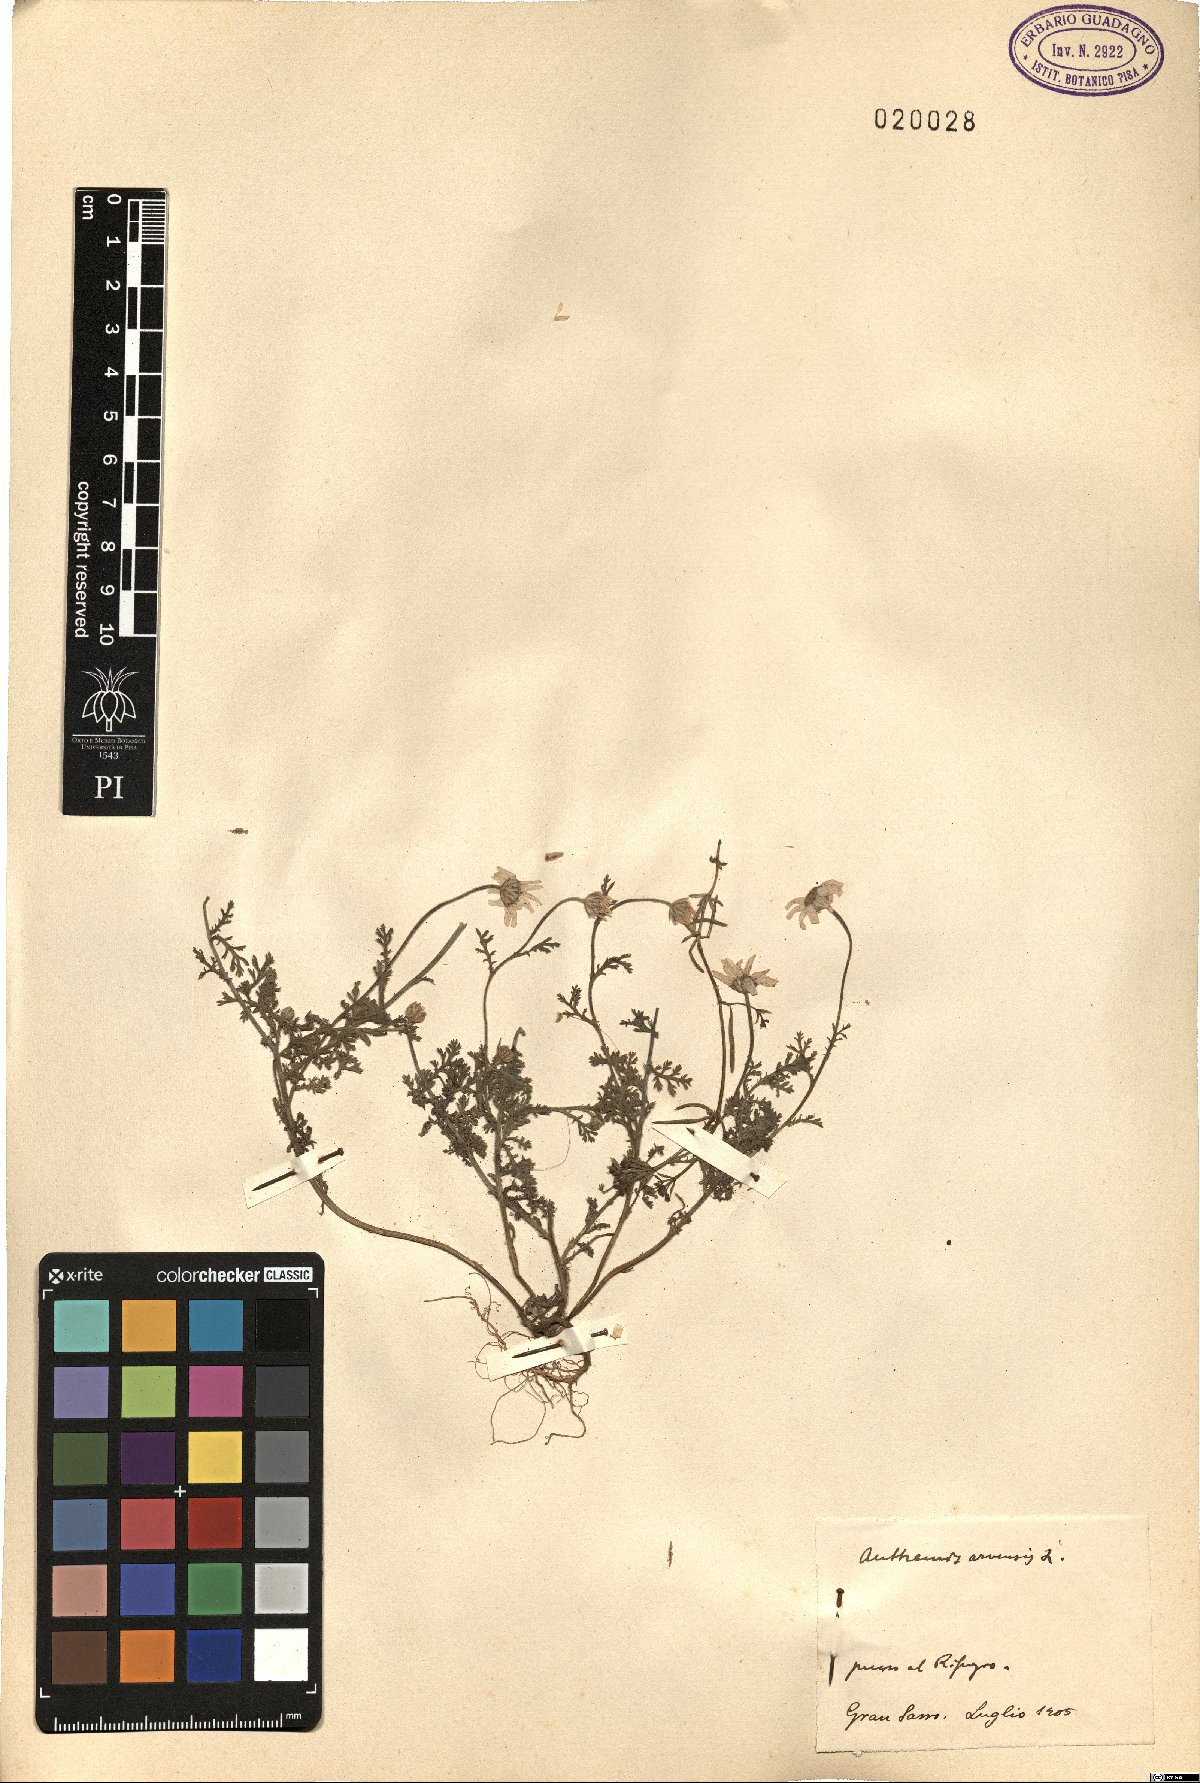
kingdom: Plantae
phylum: Tracheophyta
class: Magnoliopsida
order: Asterales
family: Asteraceae
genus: Anthemis
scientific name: Anthemis arvensis
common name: Corn chamomile
